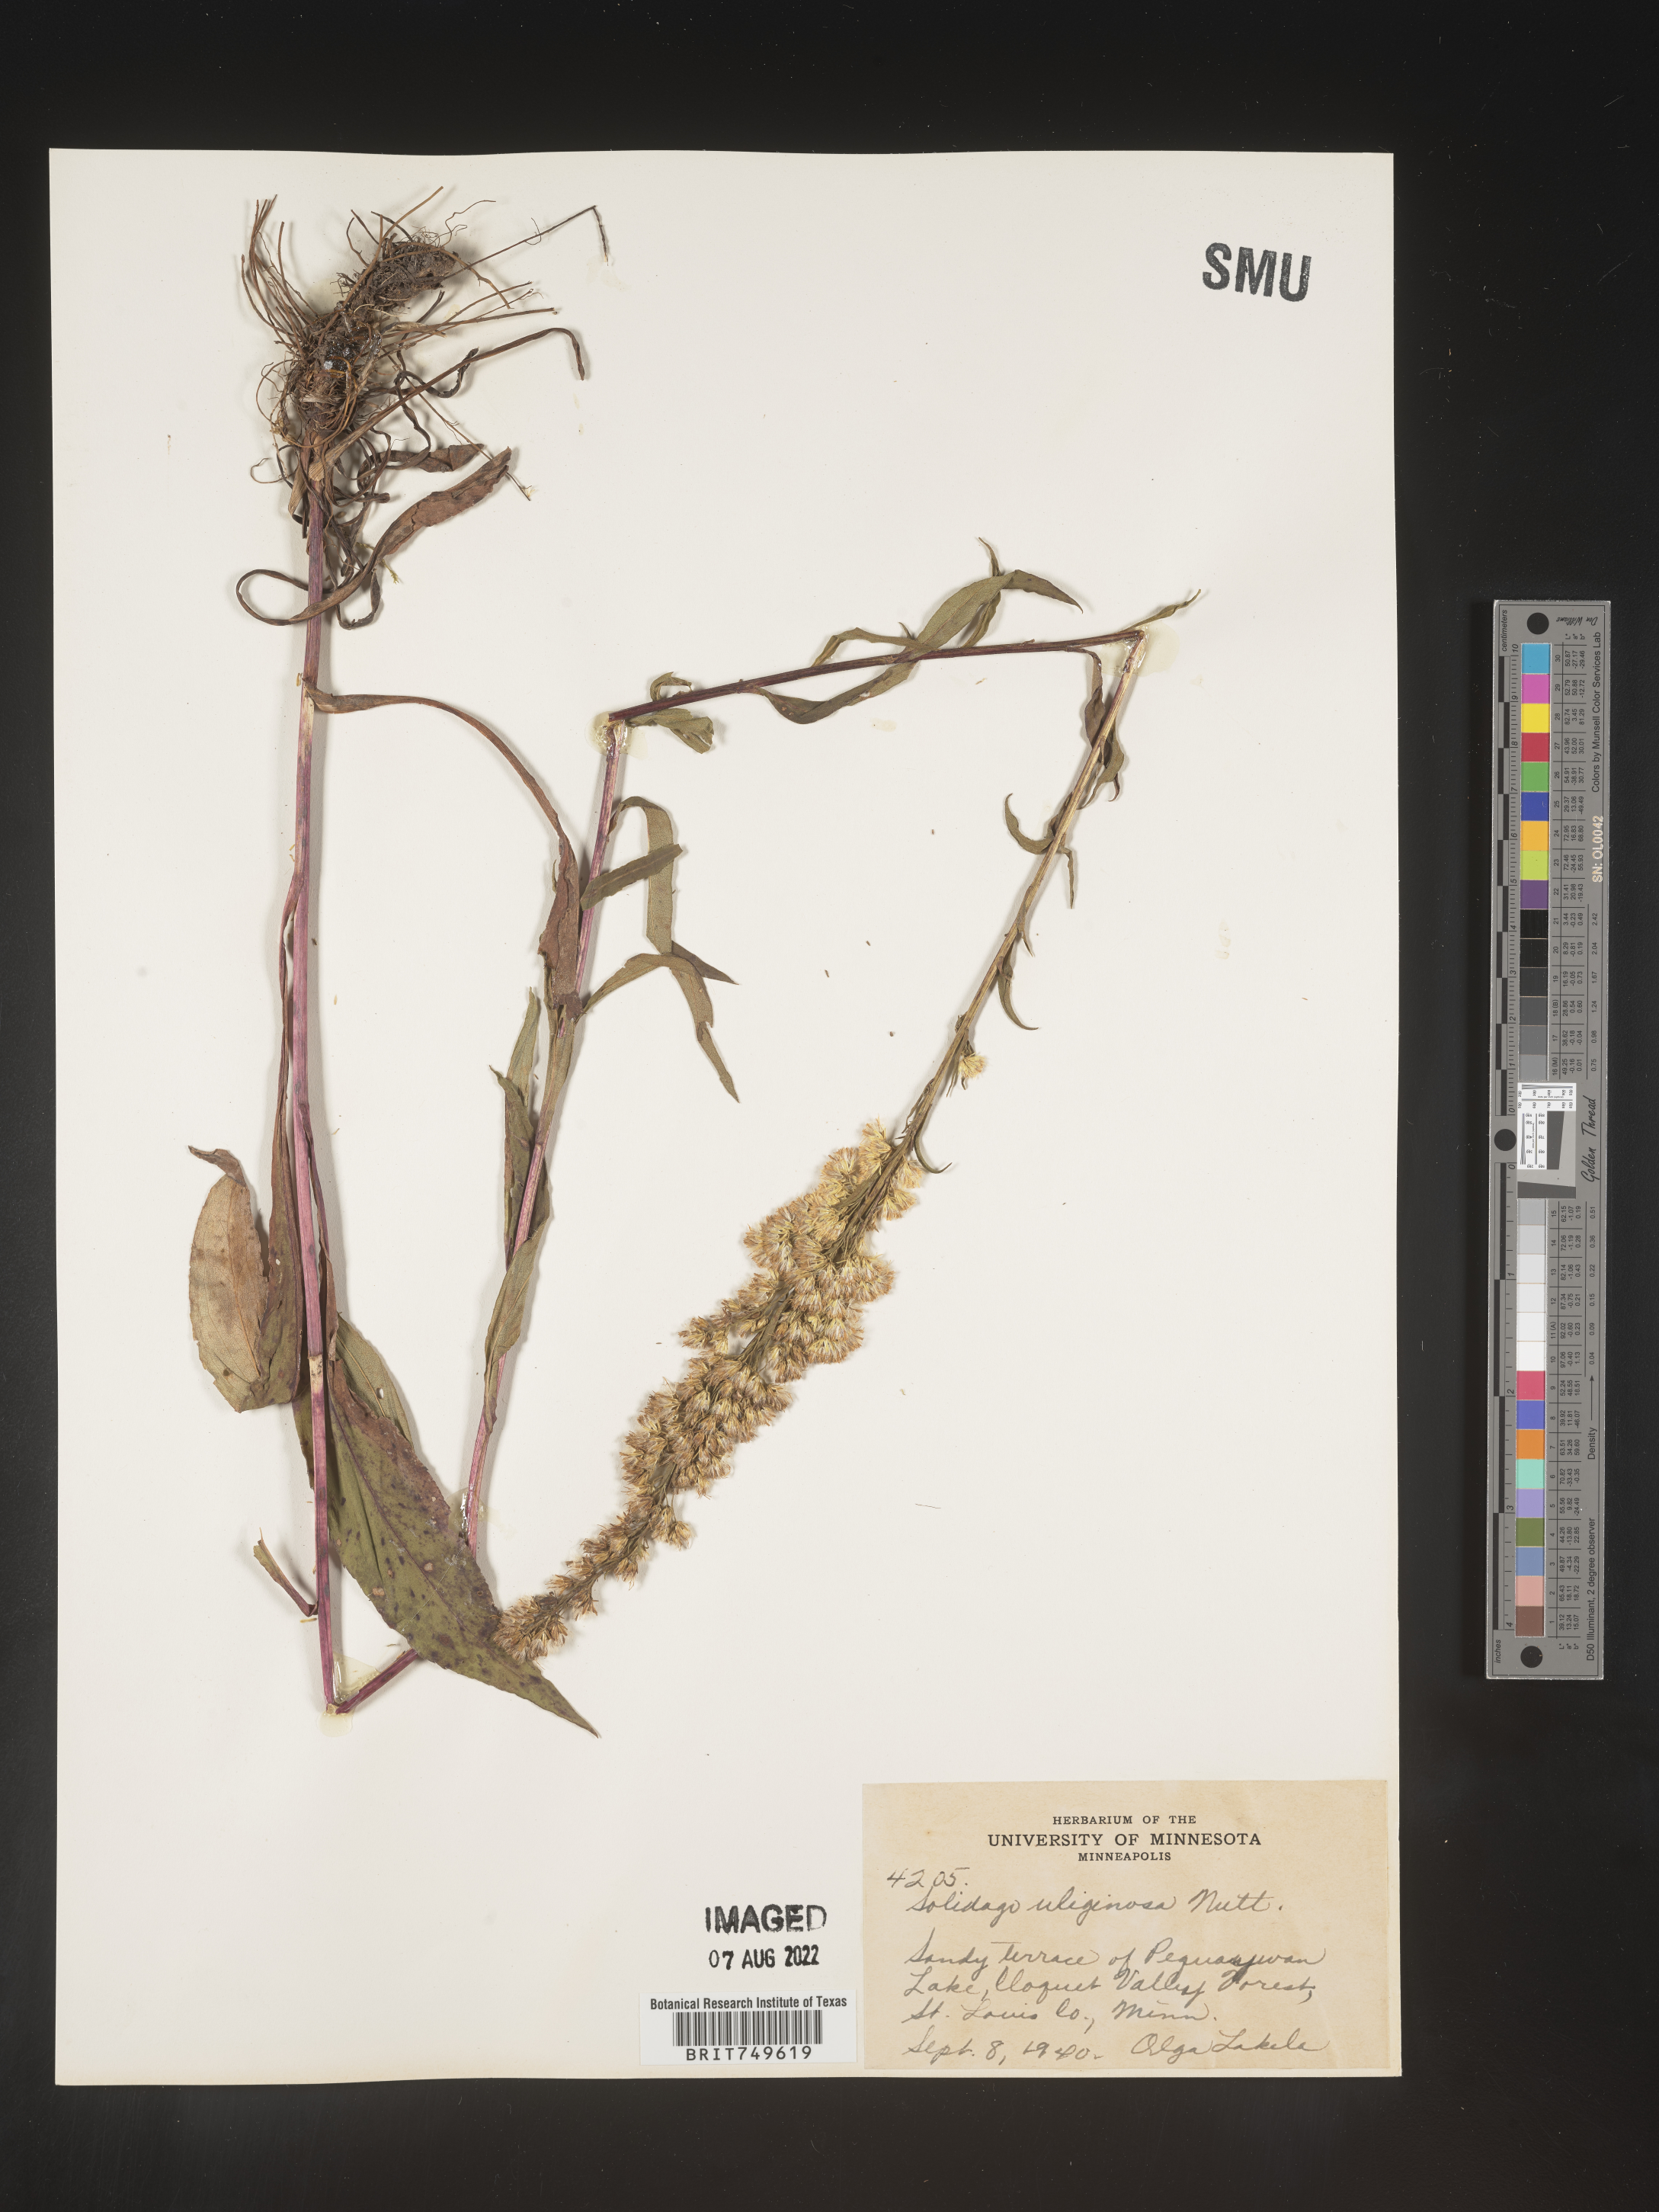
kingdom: Plantae
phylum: Tracheophyta
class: Magnoliopsida
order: Asterales
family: Asteraceae
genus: Solidago
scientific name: Solidago uliginosa
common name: Bog goldenrod
